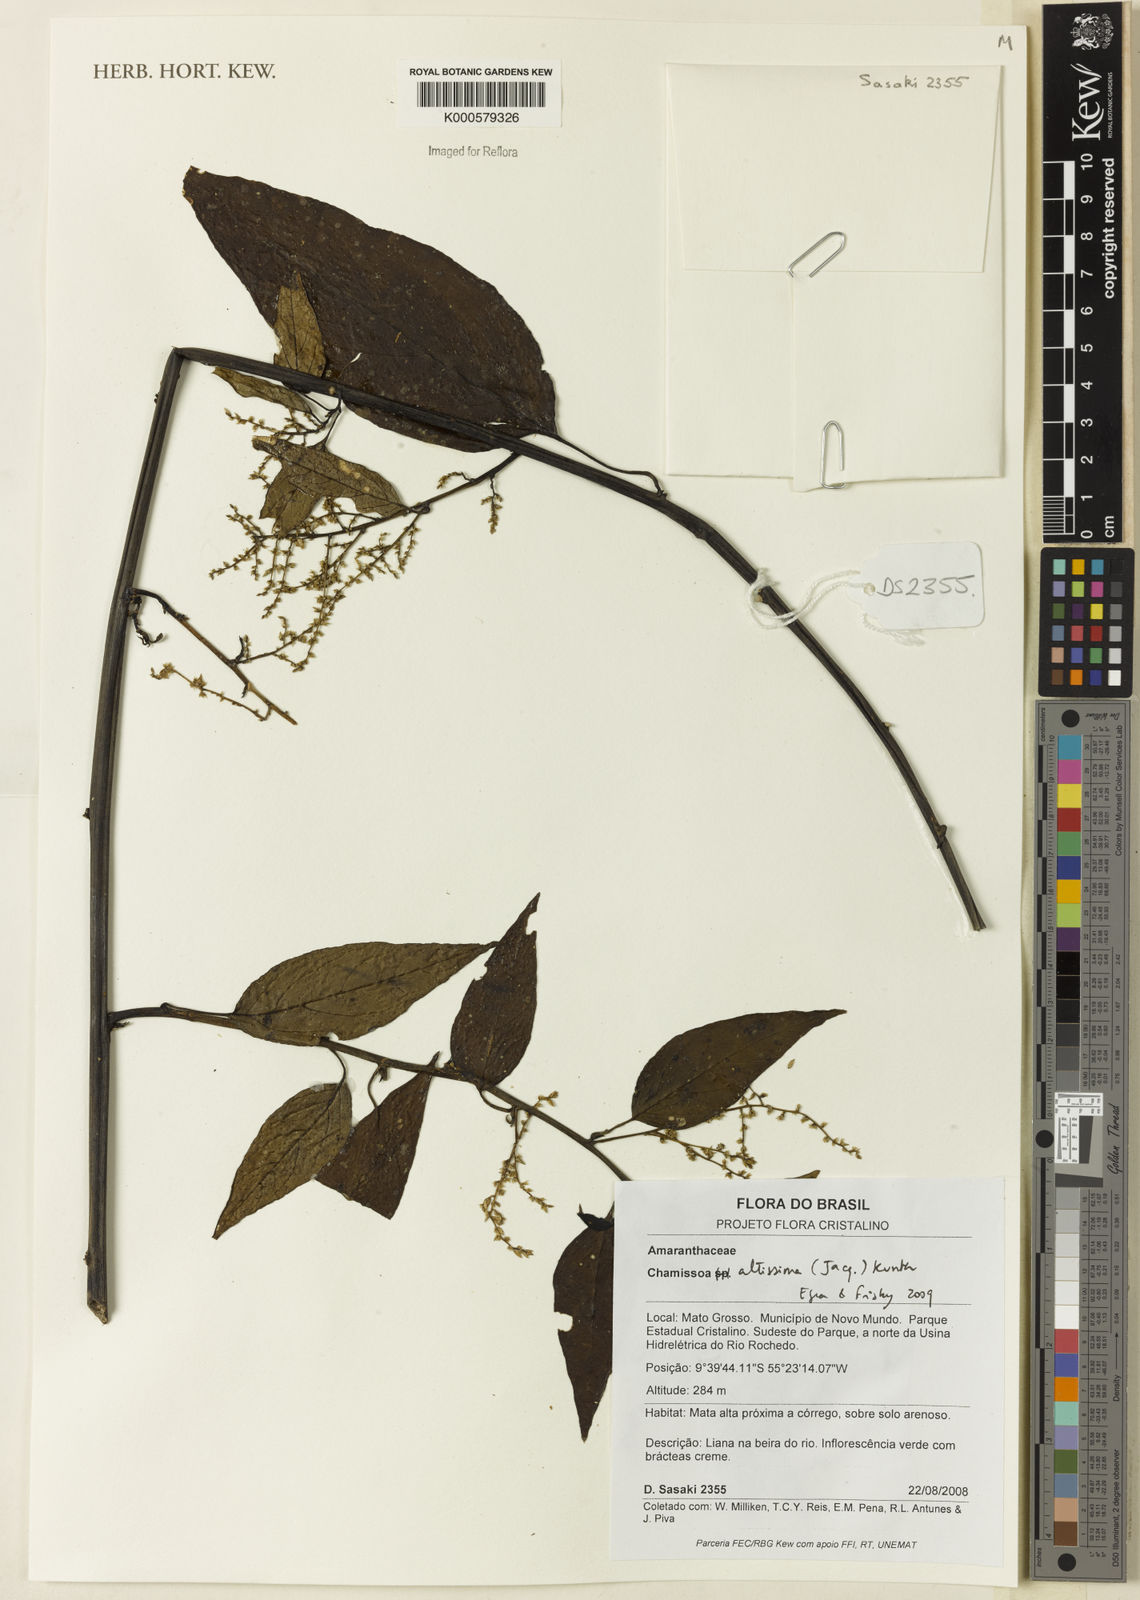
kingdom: Plantae
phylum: Tracheophyta
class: Magnoliopsida
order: Caryophyllales
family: Amaranthaceae
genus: Chamissoa
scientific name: Chamissoa altissima
